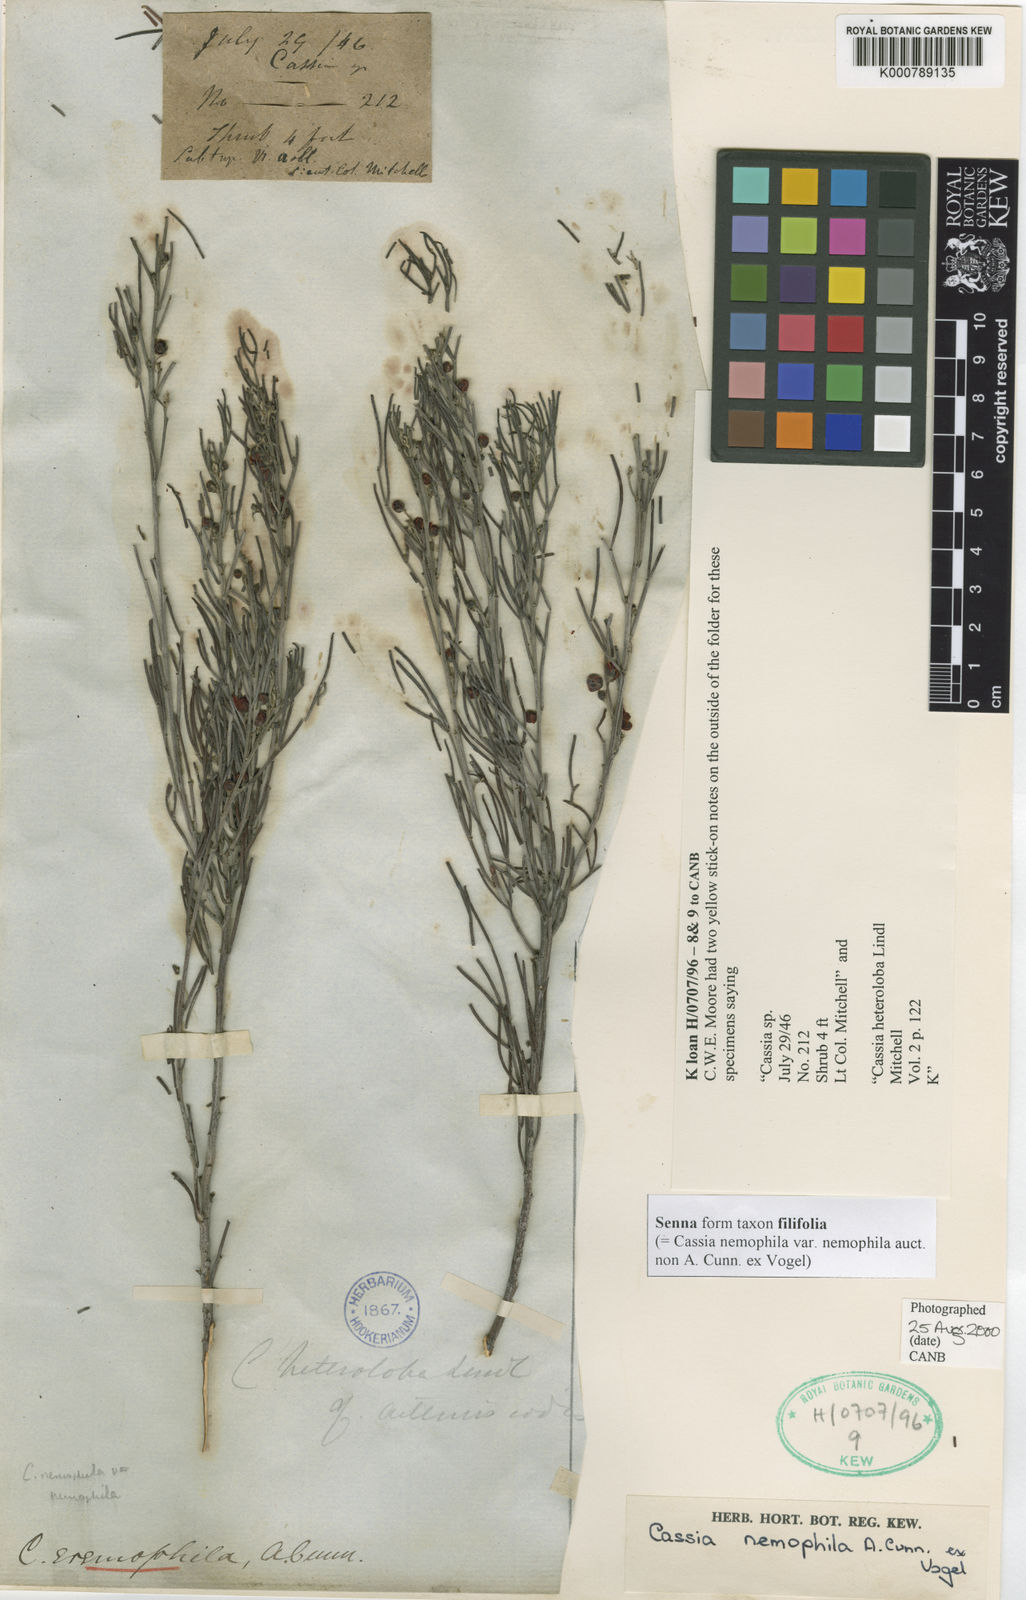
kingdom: Plantae
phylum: Tracheophyta
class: Magnoliopsida
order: Fabales
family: Fabaceae
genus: Senna
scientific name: Senna
